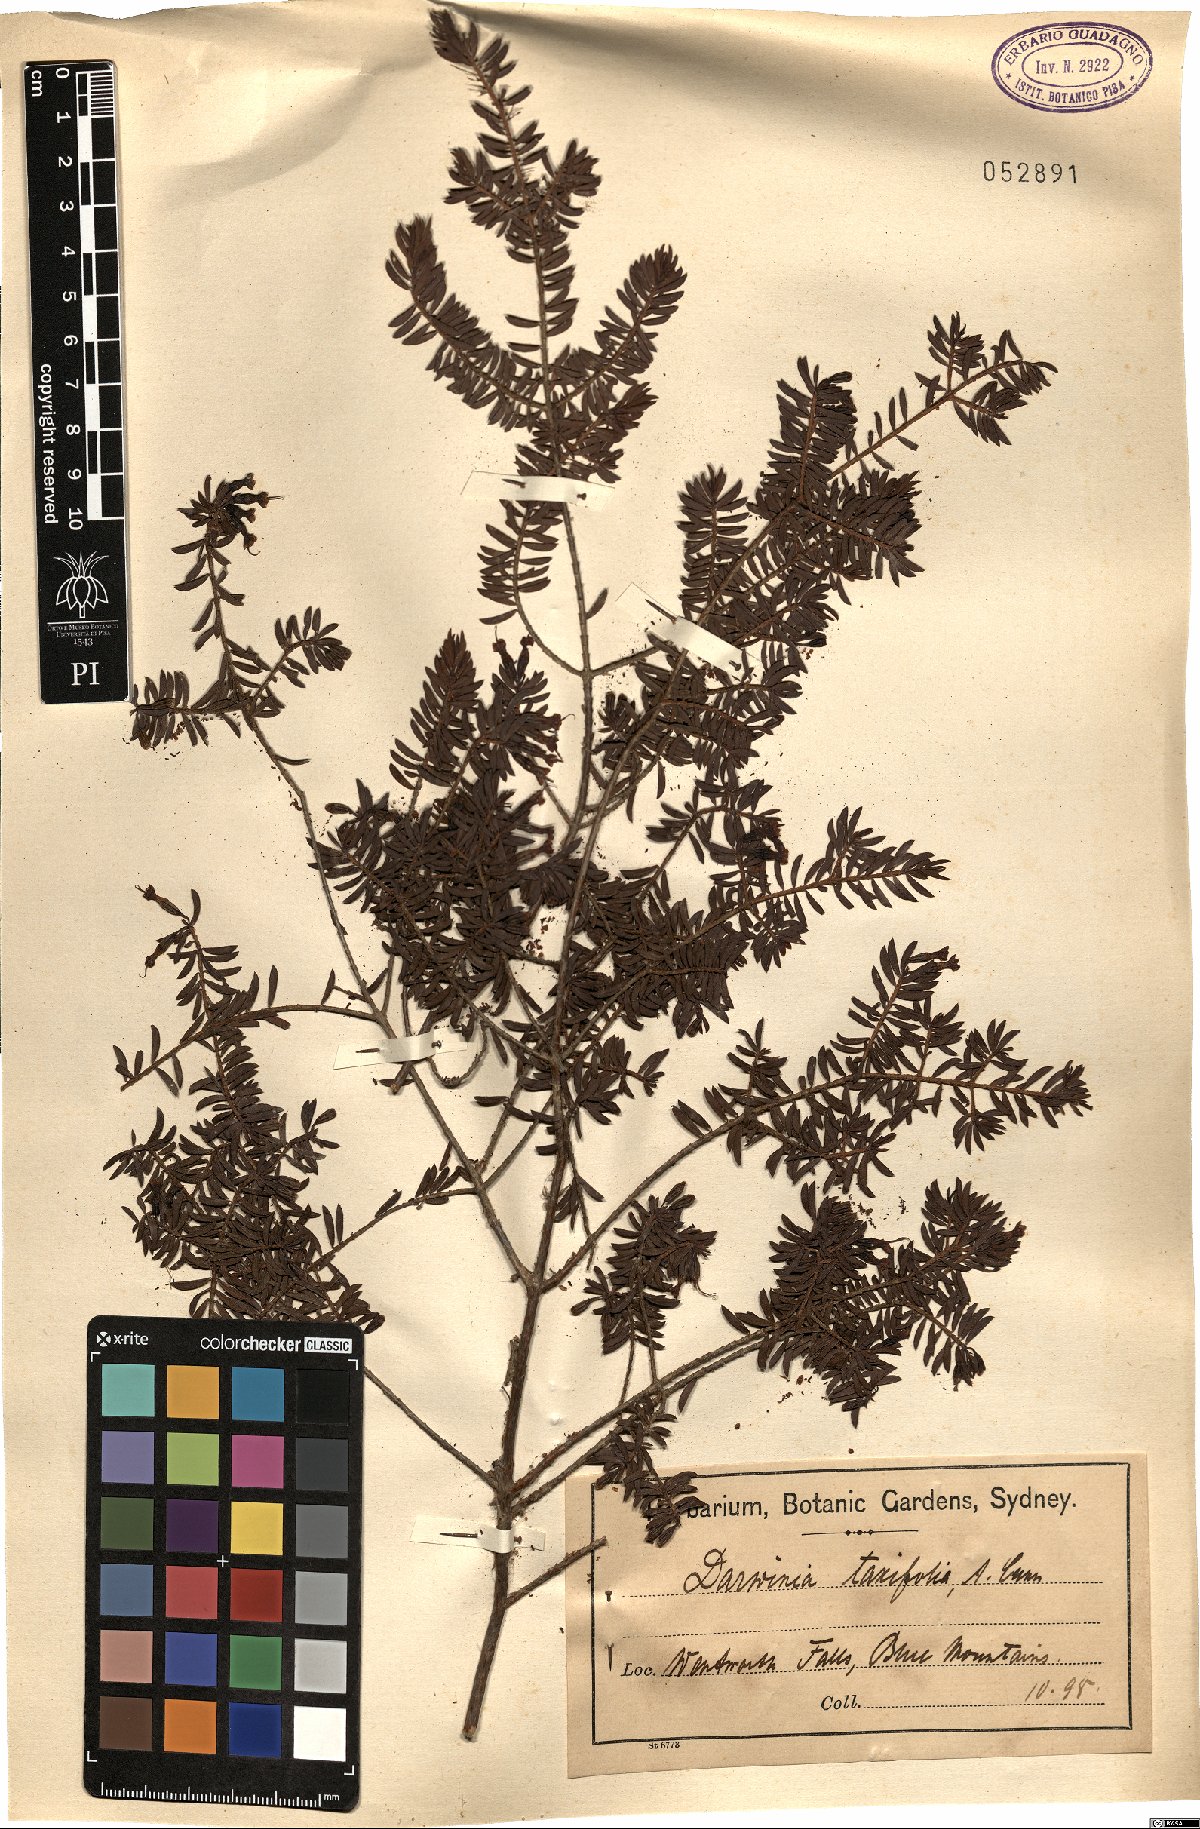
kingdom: Plantae
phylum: Tracheophyta
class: Magnoliopsida
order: Myrtales
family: Myrtaceae
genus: Darwinia
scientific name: Darwinia taxifolia
